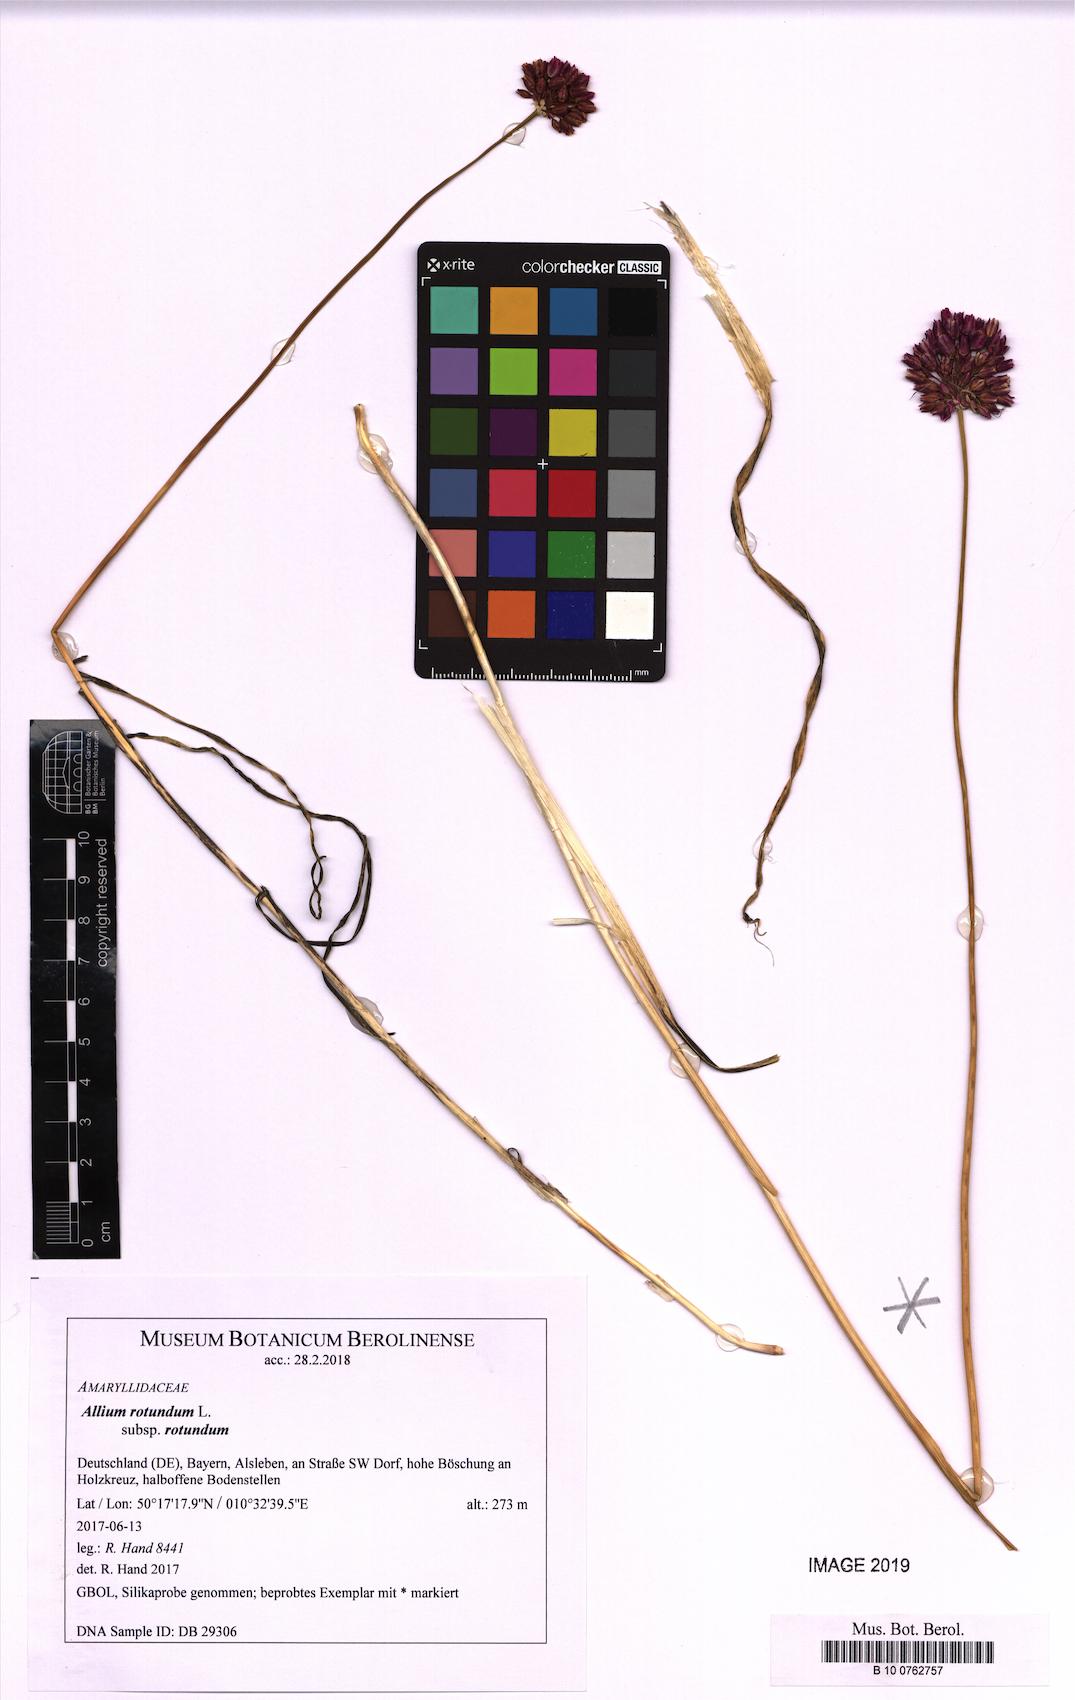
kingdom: Plantae
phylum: Tracheophyta
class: Liliopsida
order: Asparagales
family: Amaryllidaceae
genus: Allium
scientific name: Allium rotundum
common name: Sand leek
